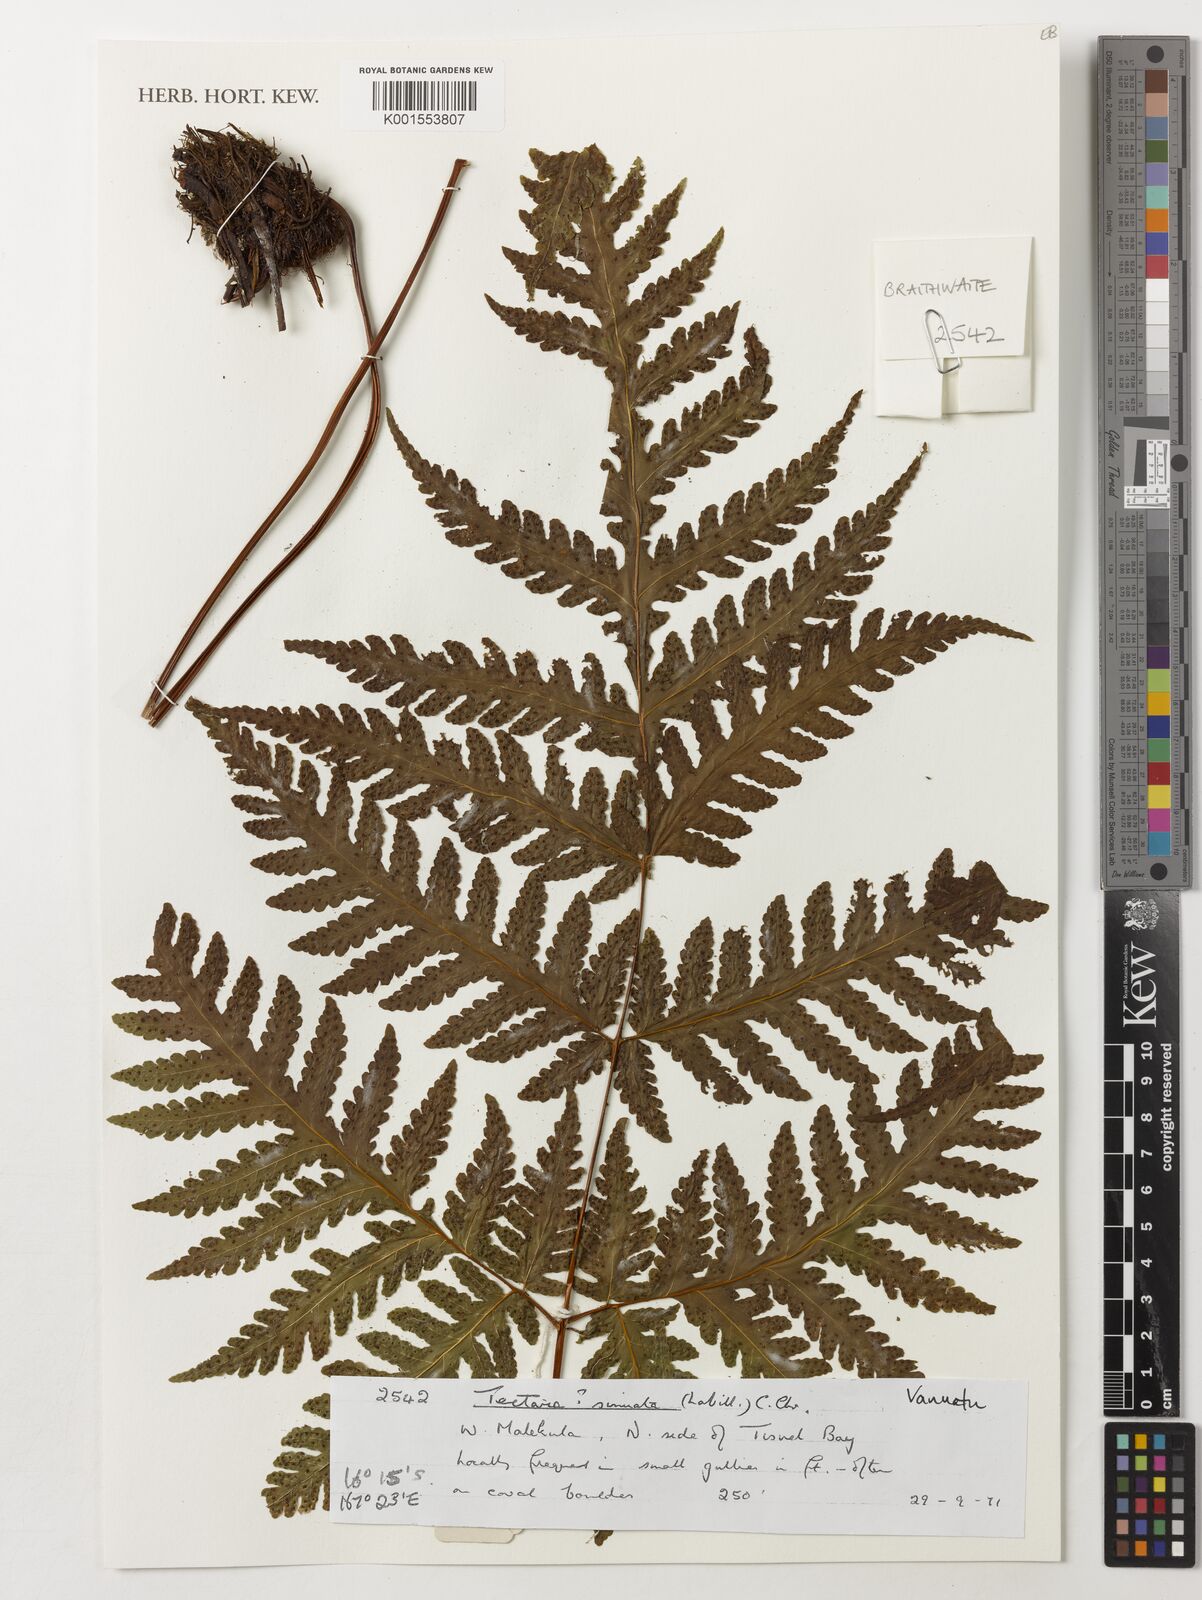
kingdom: Plantae
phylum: Tracheophyta
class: Polypodiopsida
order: Polypodiales
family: Tectariaceae
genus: Tectaria
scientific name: Tectaria sinuata
